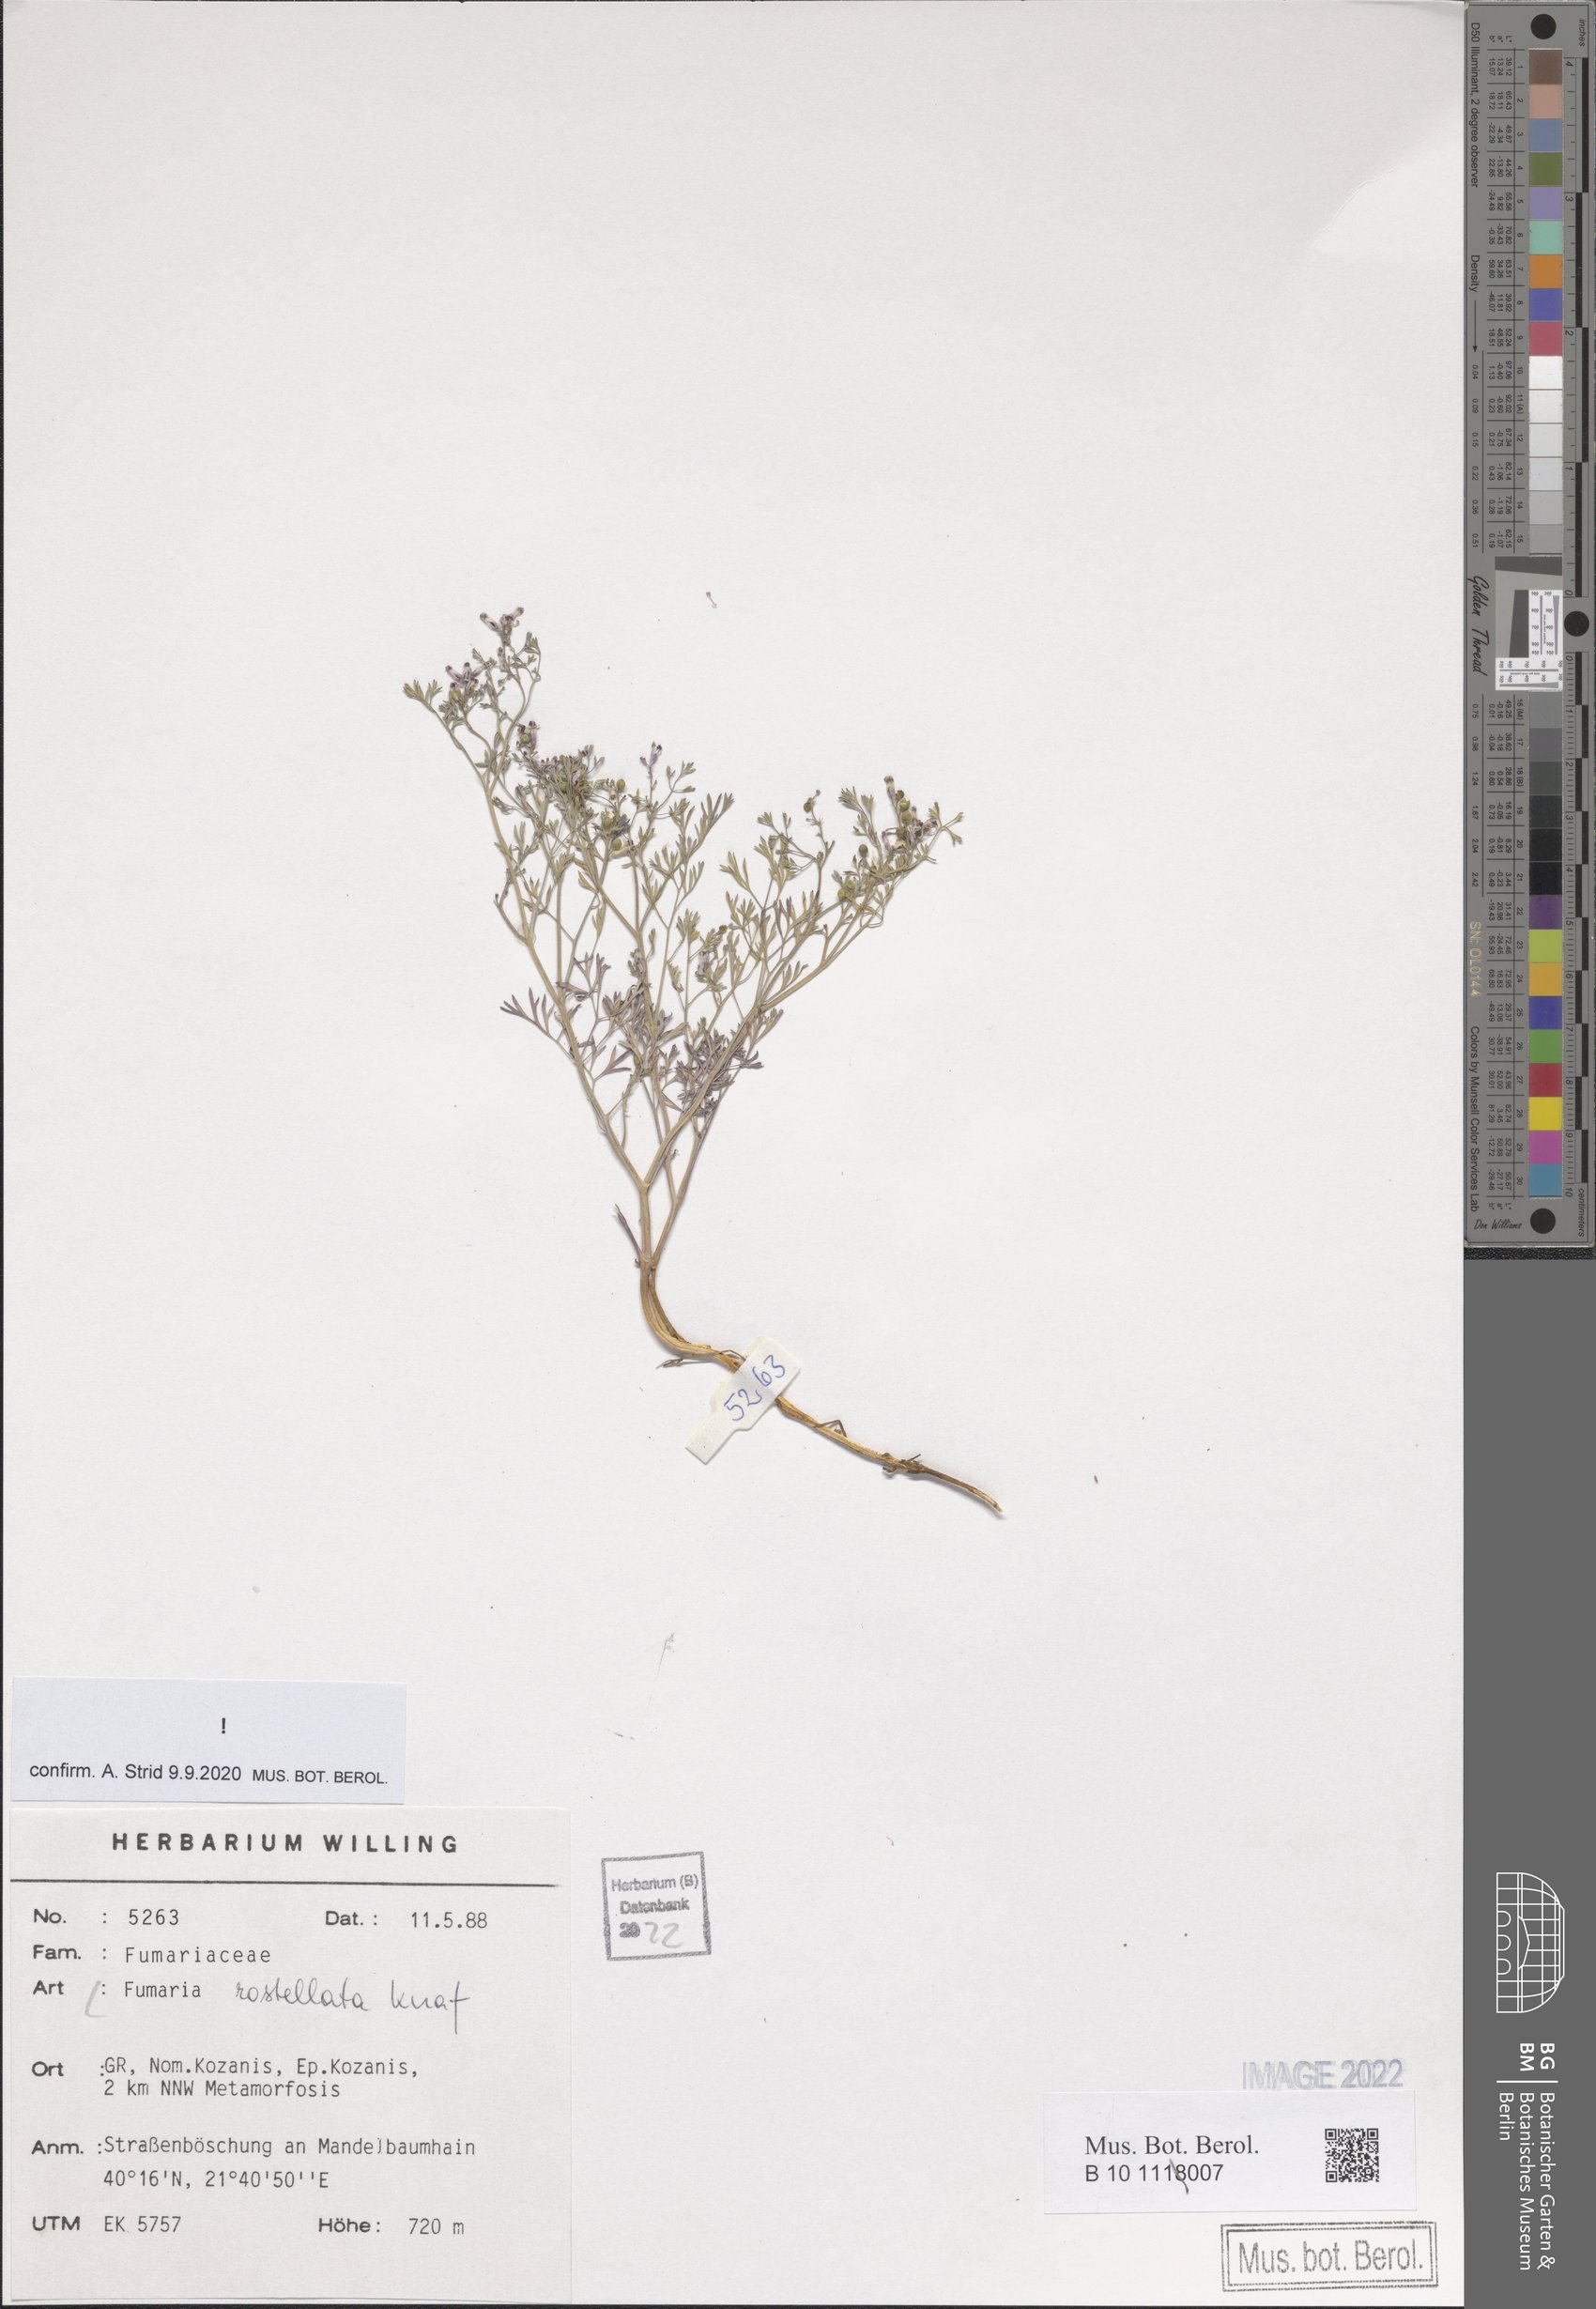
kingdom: Plantae
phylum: Tracheophyta
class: Magnoliopsida
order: Ranunculales
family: Papaveraceae
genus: Fumaria
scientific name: Fumaria rostellata
